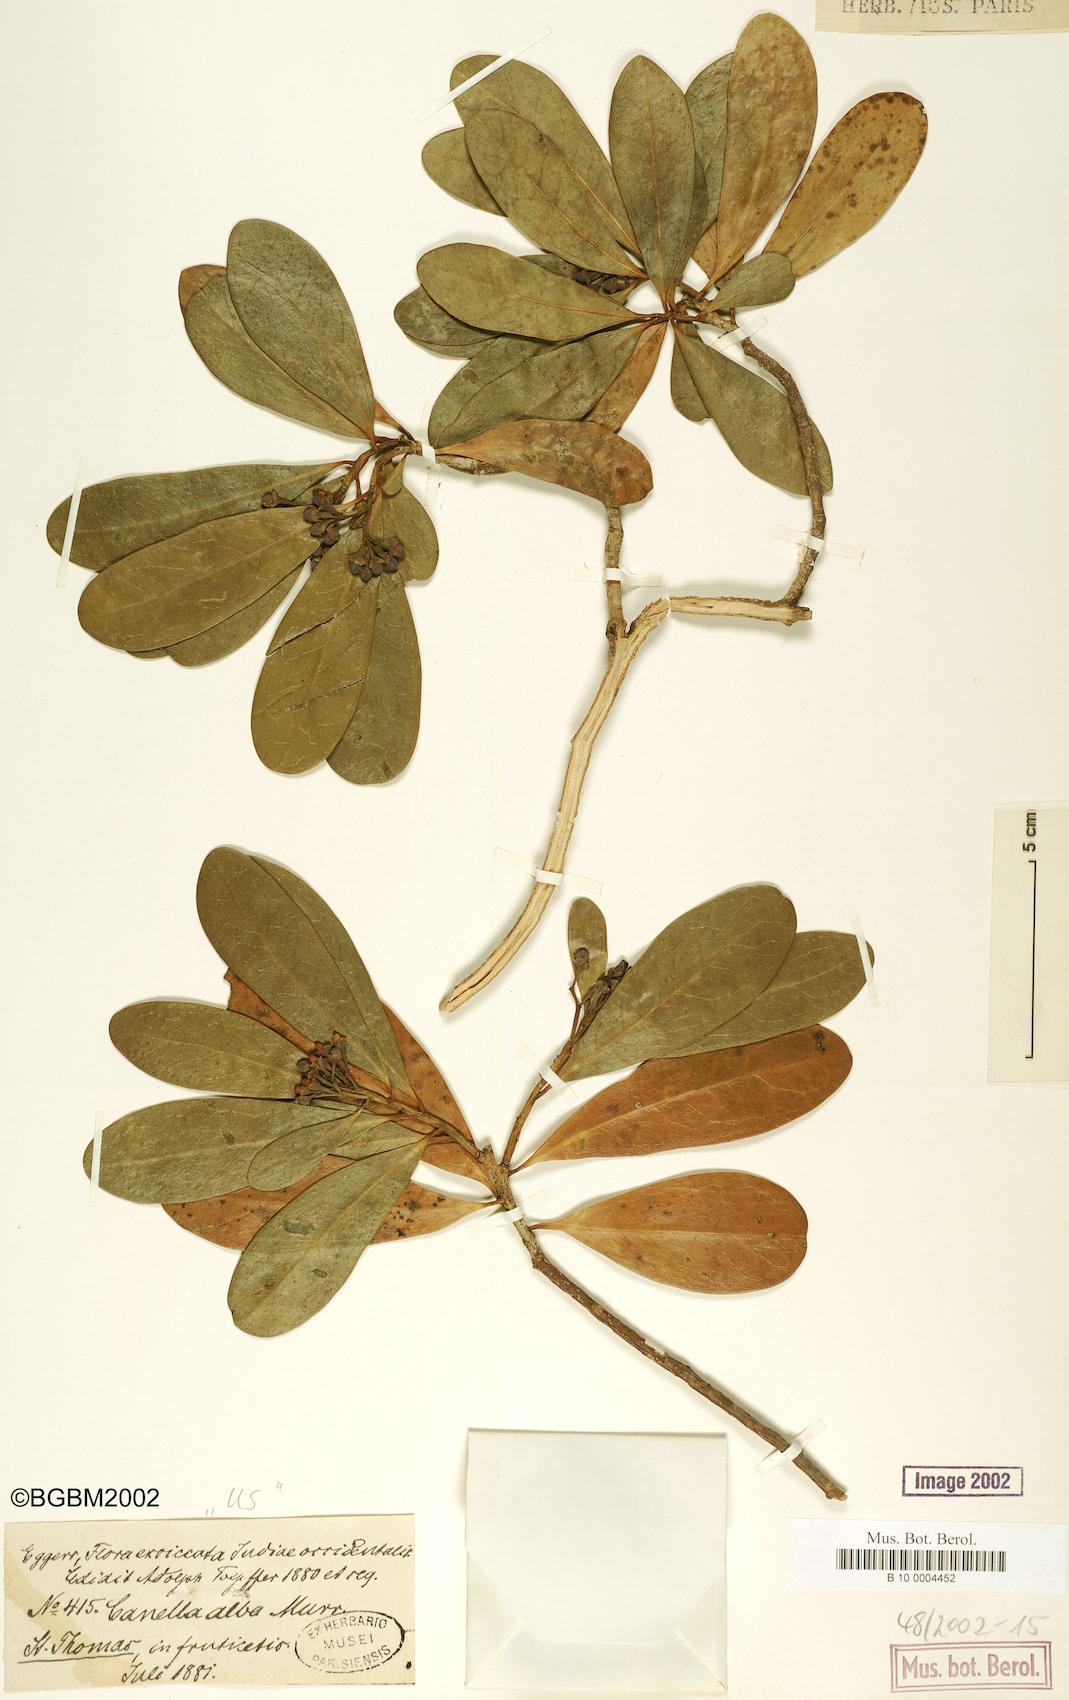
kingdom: Plantae
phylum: Tracheophyta
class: Magnoliopsida
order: Canellales
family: Canellaceae
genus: Canella
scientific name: Canella alba
